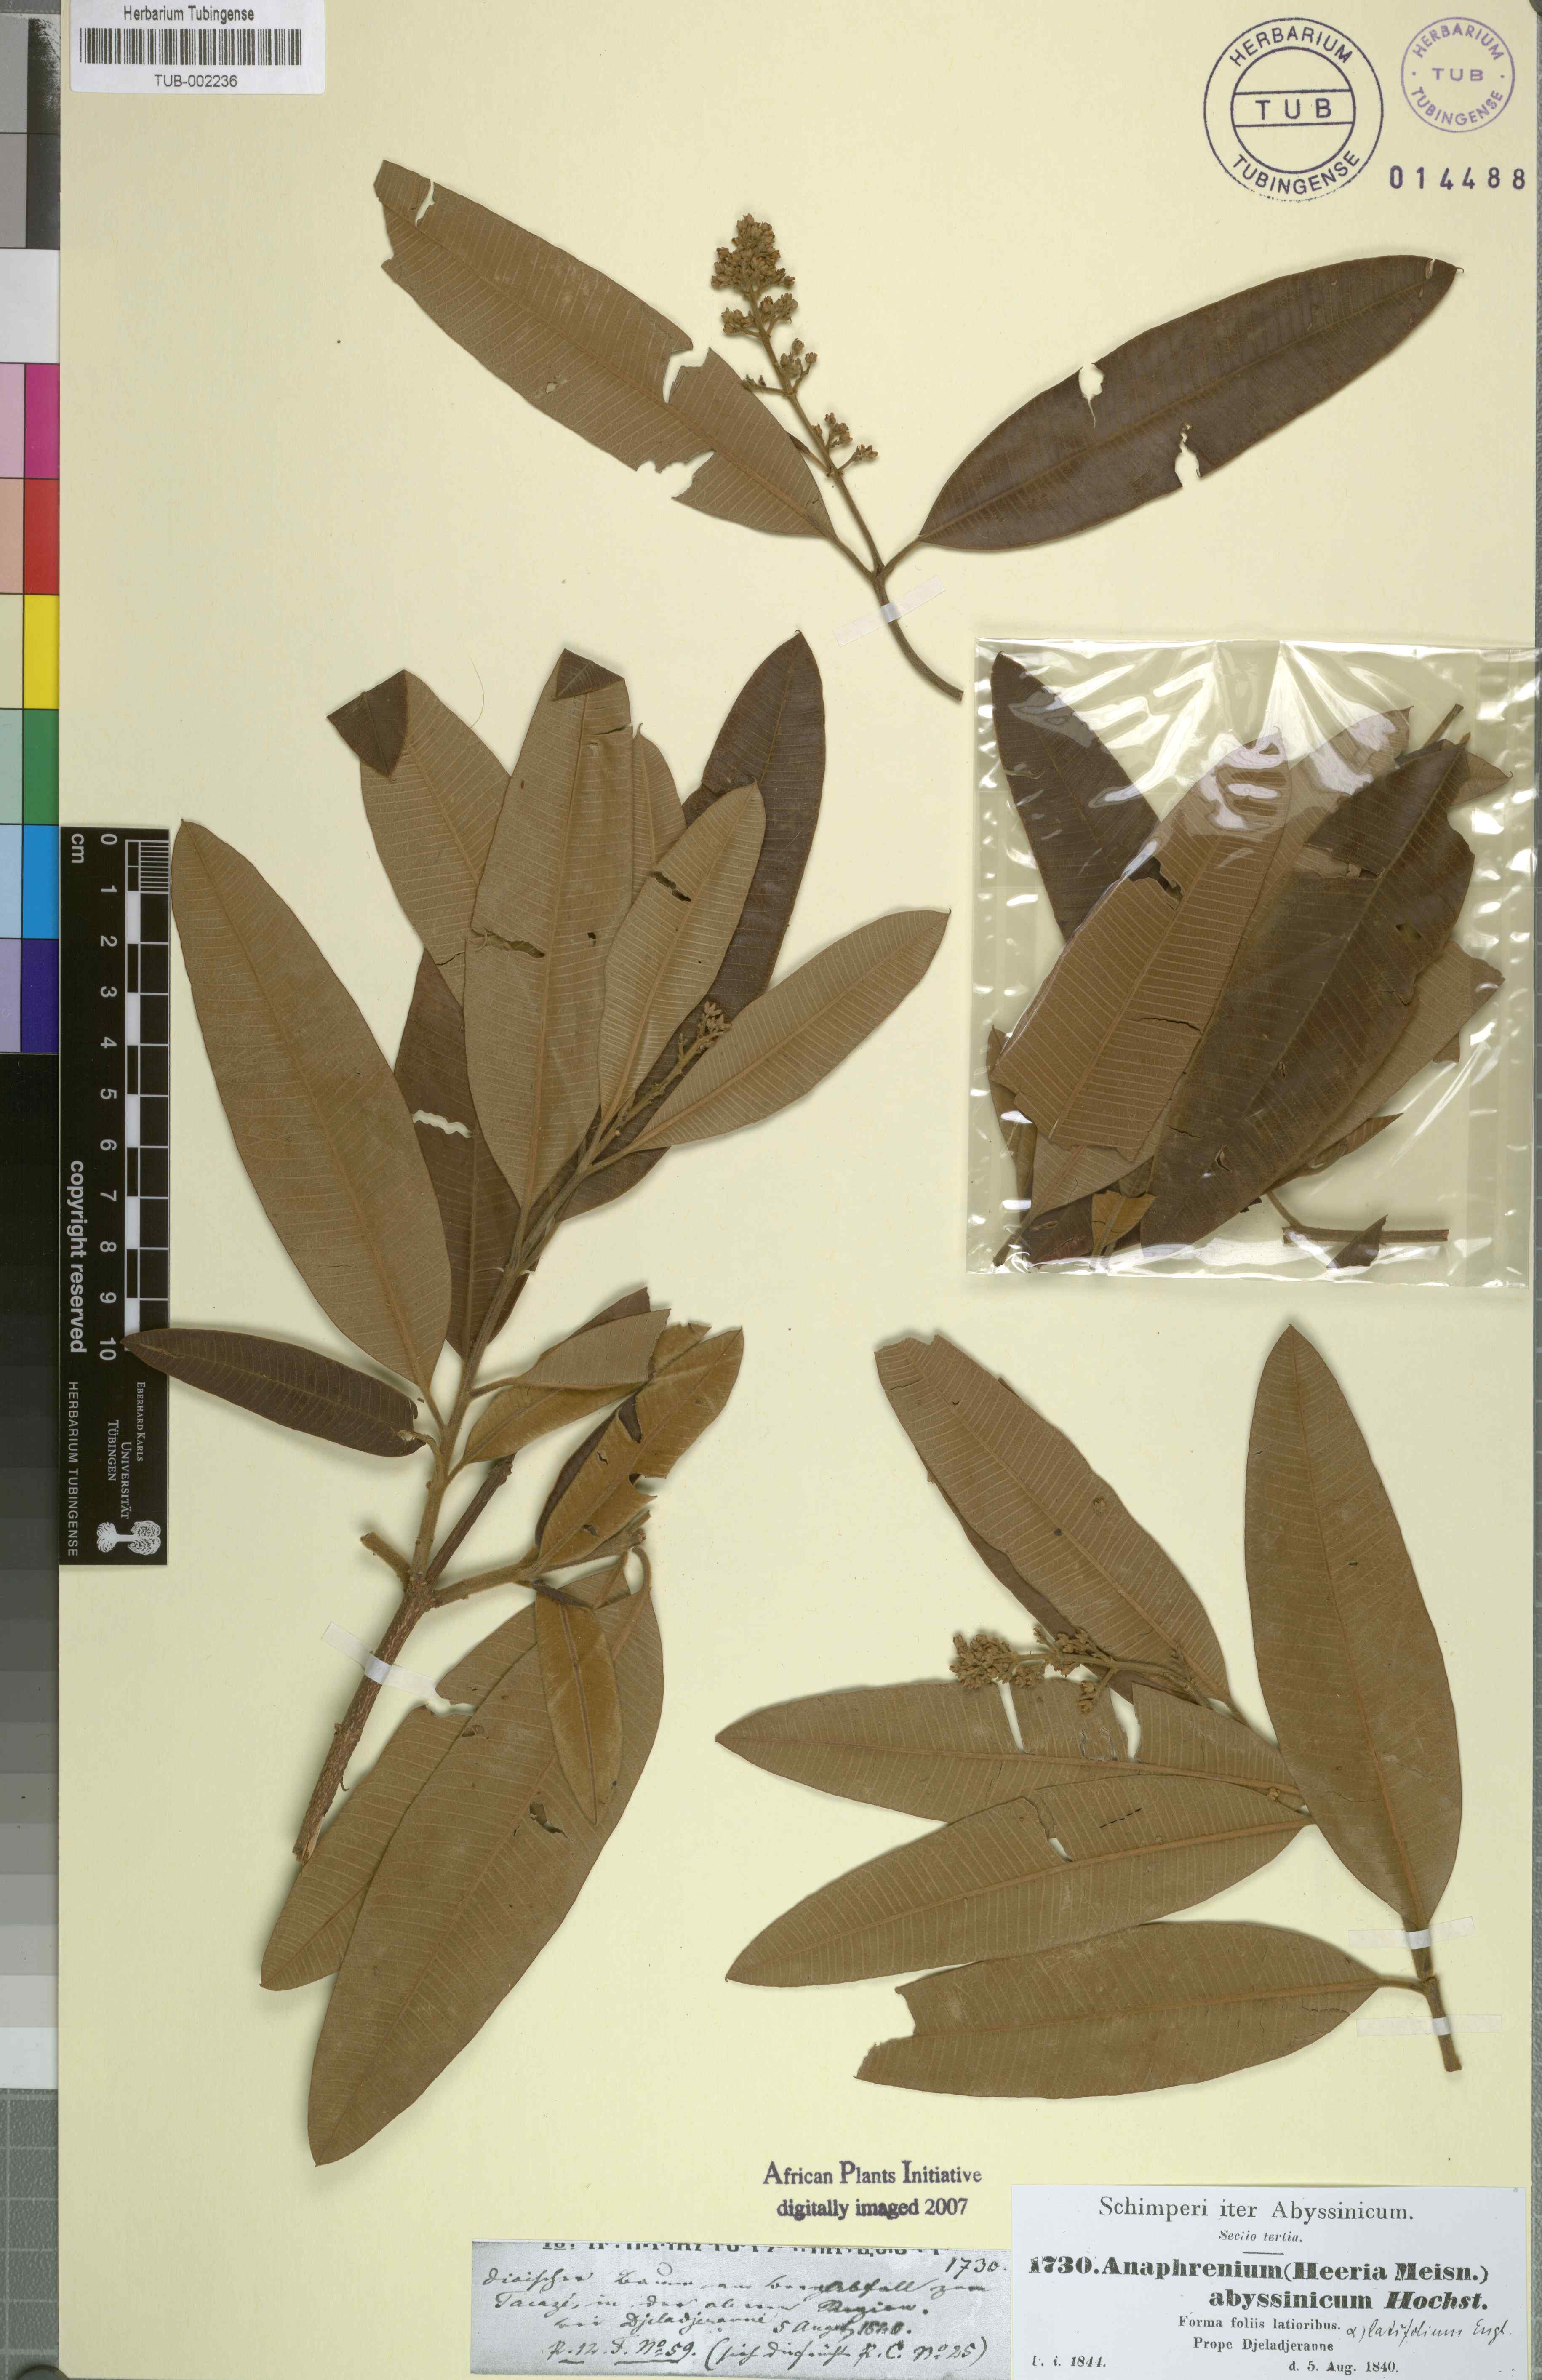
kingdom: Plantae
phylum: Tracheophyta
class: Magnoliopsida
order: Sapindales
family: Anacardiaceae
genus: Ozoroa
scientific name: Ozoroa insignis
